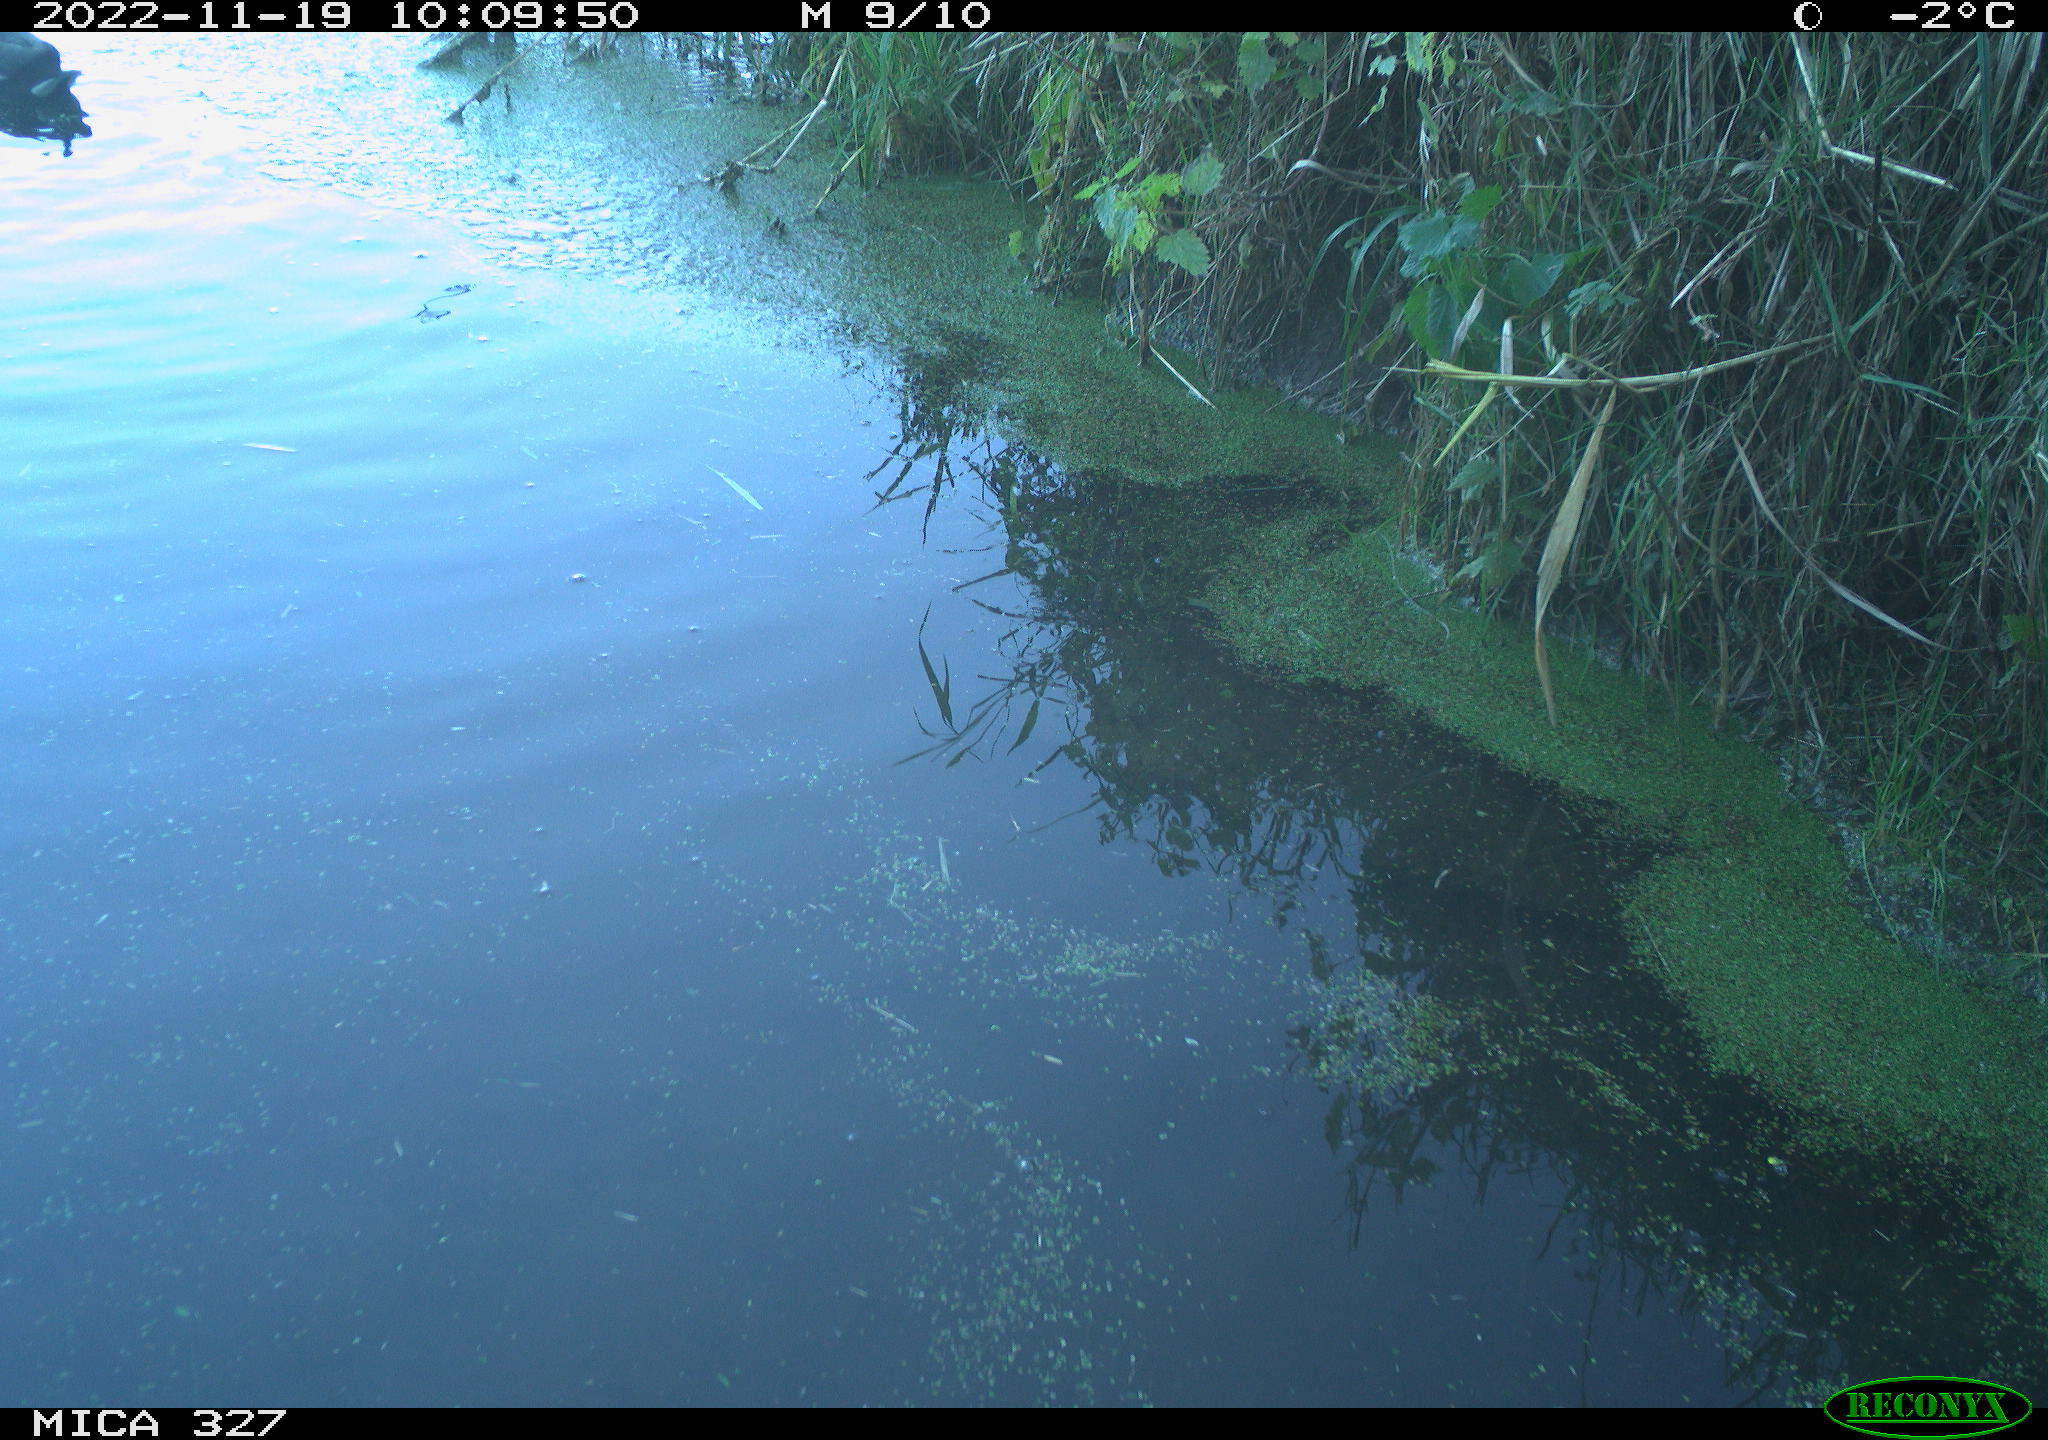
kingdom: Animalia
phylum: Chordata
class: Aves
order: Gruiformes
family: Rallidae
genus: Gallinula
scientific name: Gallinula chloropus
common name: Common moorhen
